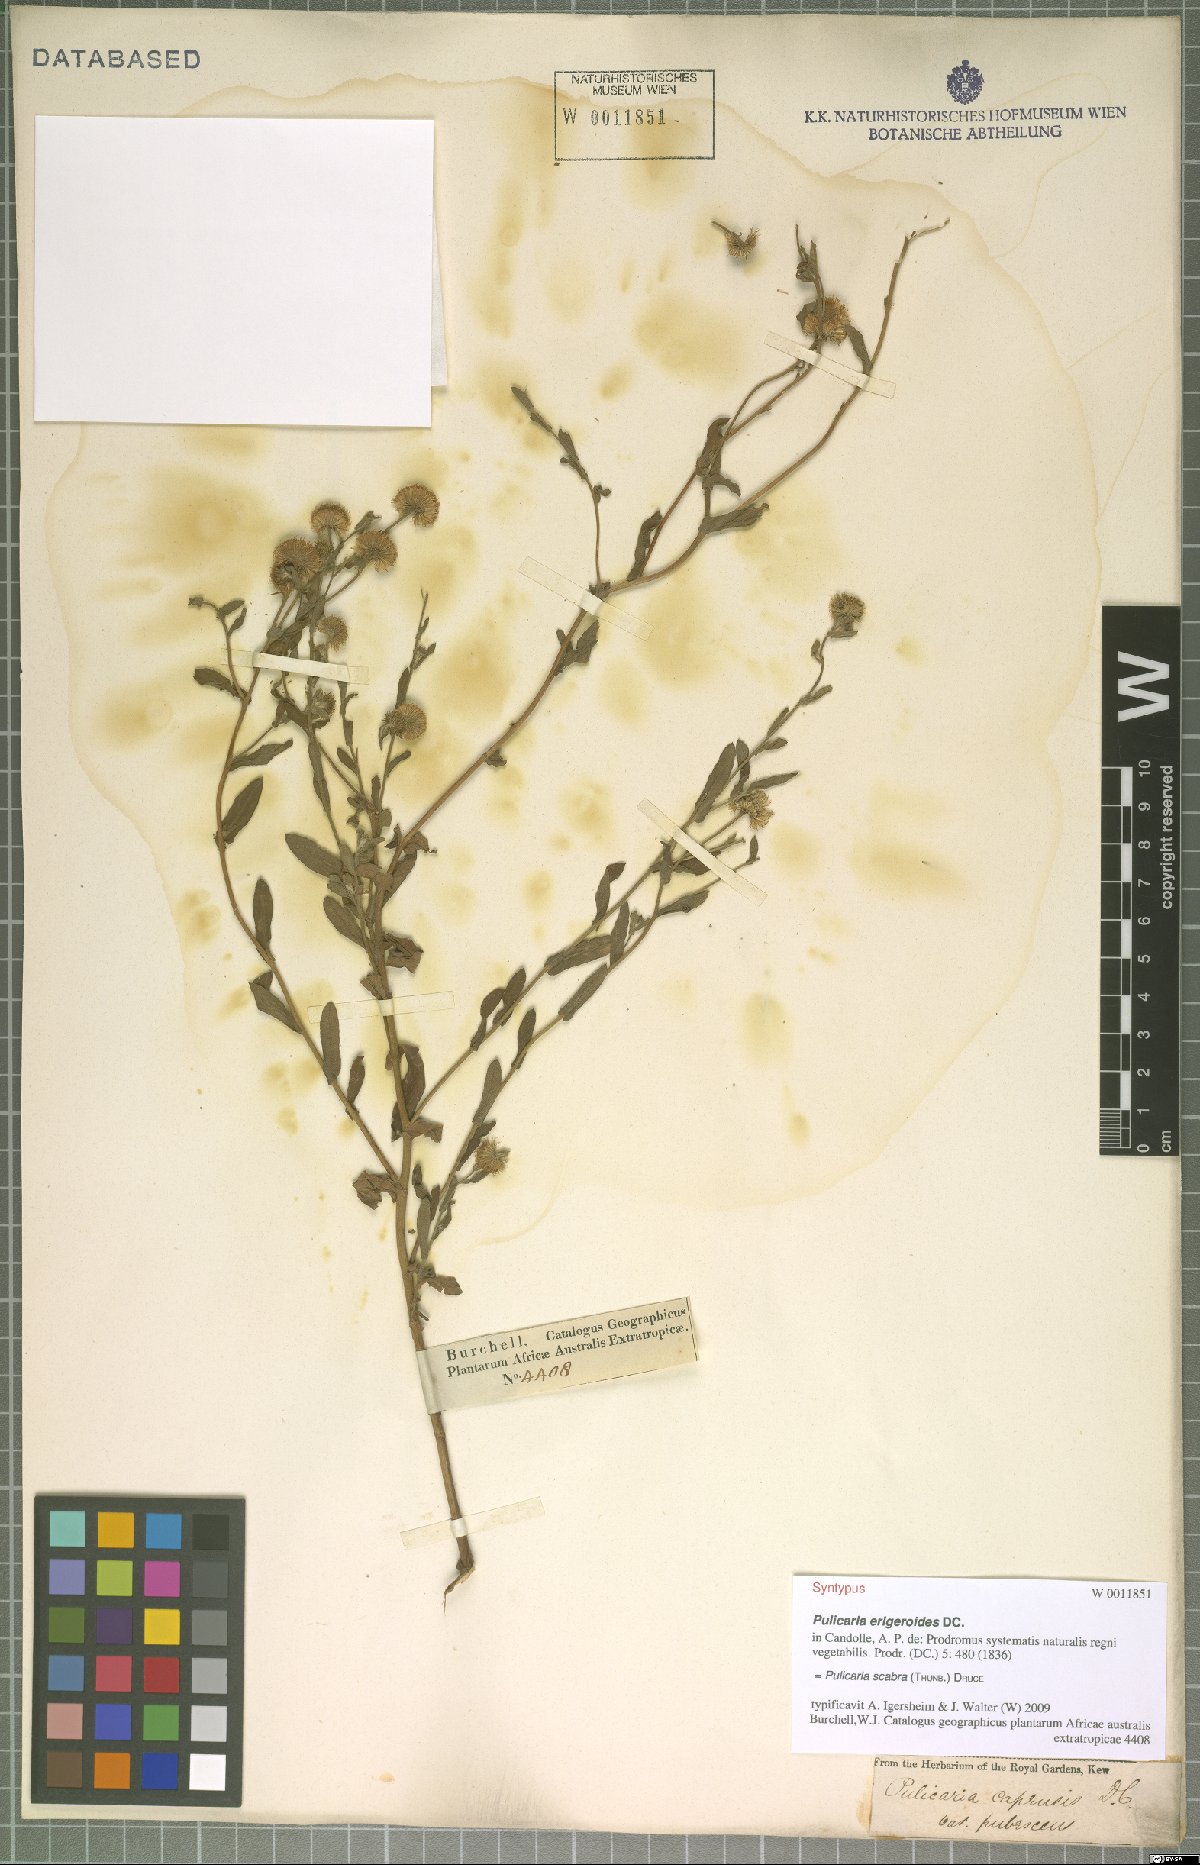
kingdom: Plantae
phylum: Tracheophyta
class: Magnoliopsida
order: Asterales
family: Asteraceae
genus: Pulicaria
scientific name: Pulicaria scabra
